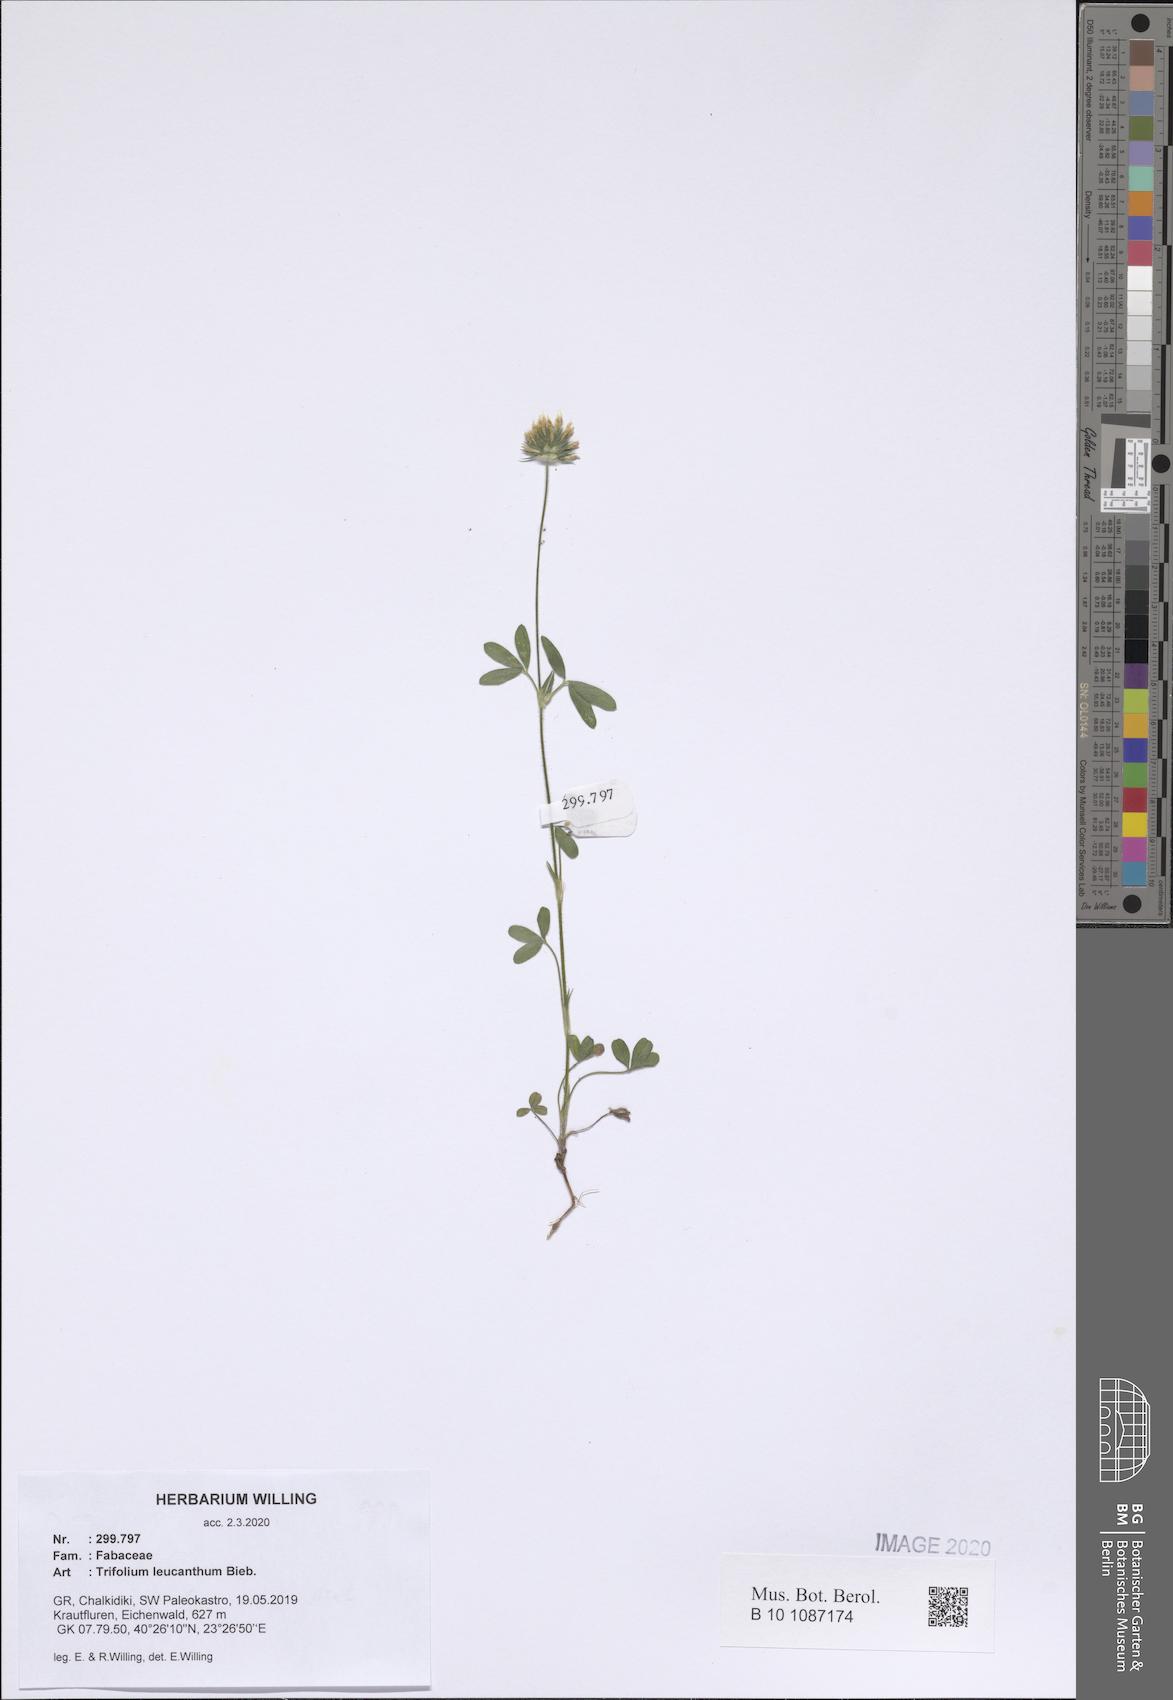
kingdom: Plantae
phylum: Tracheophyta
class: Magnoliopsida
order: Fabales
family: Fabaceae
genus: Trifolium
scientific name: Trifolium leucanthum
